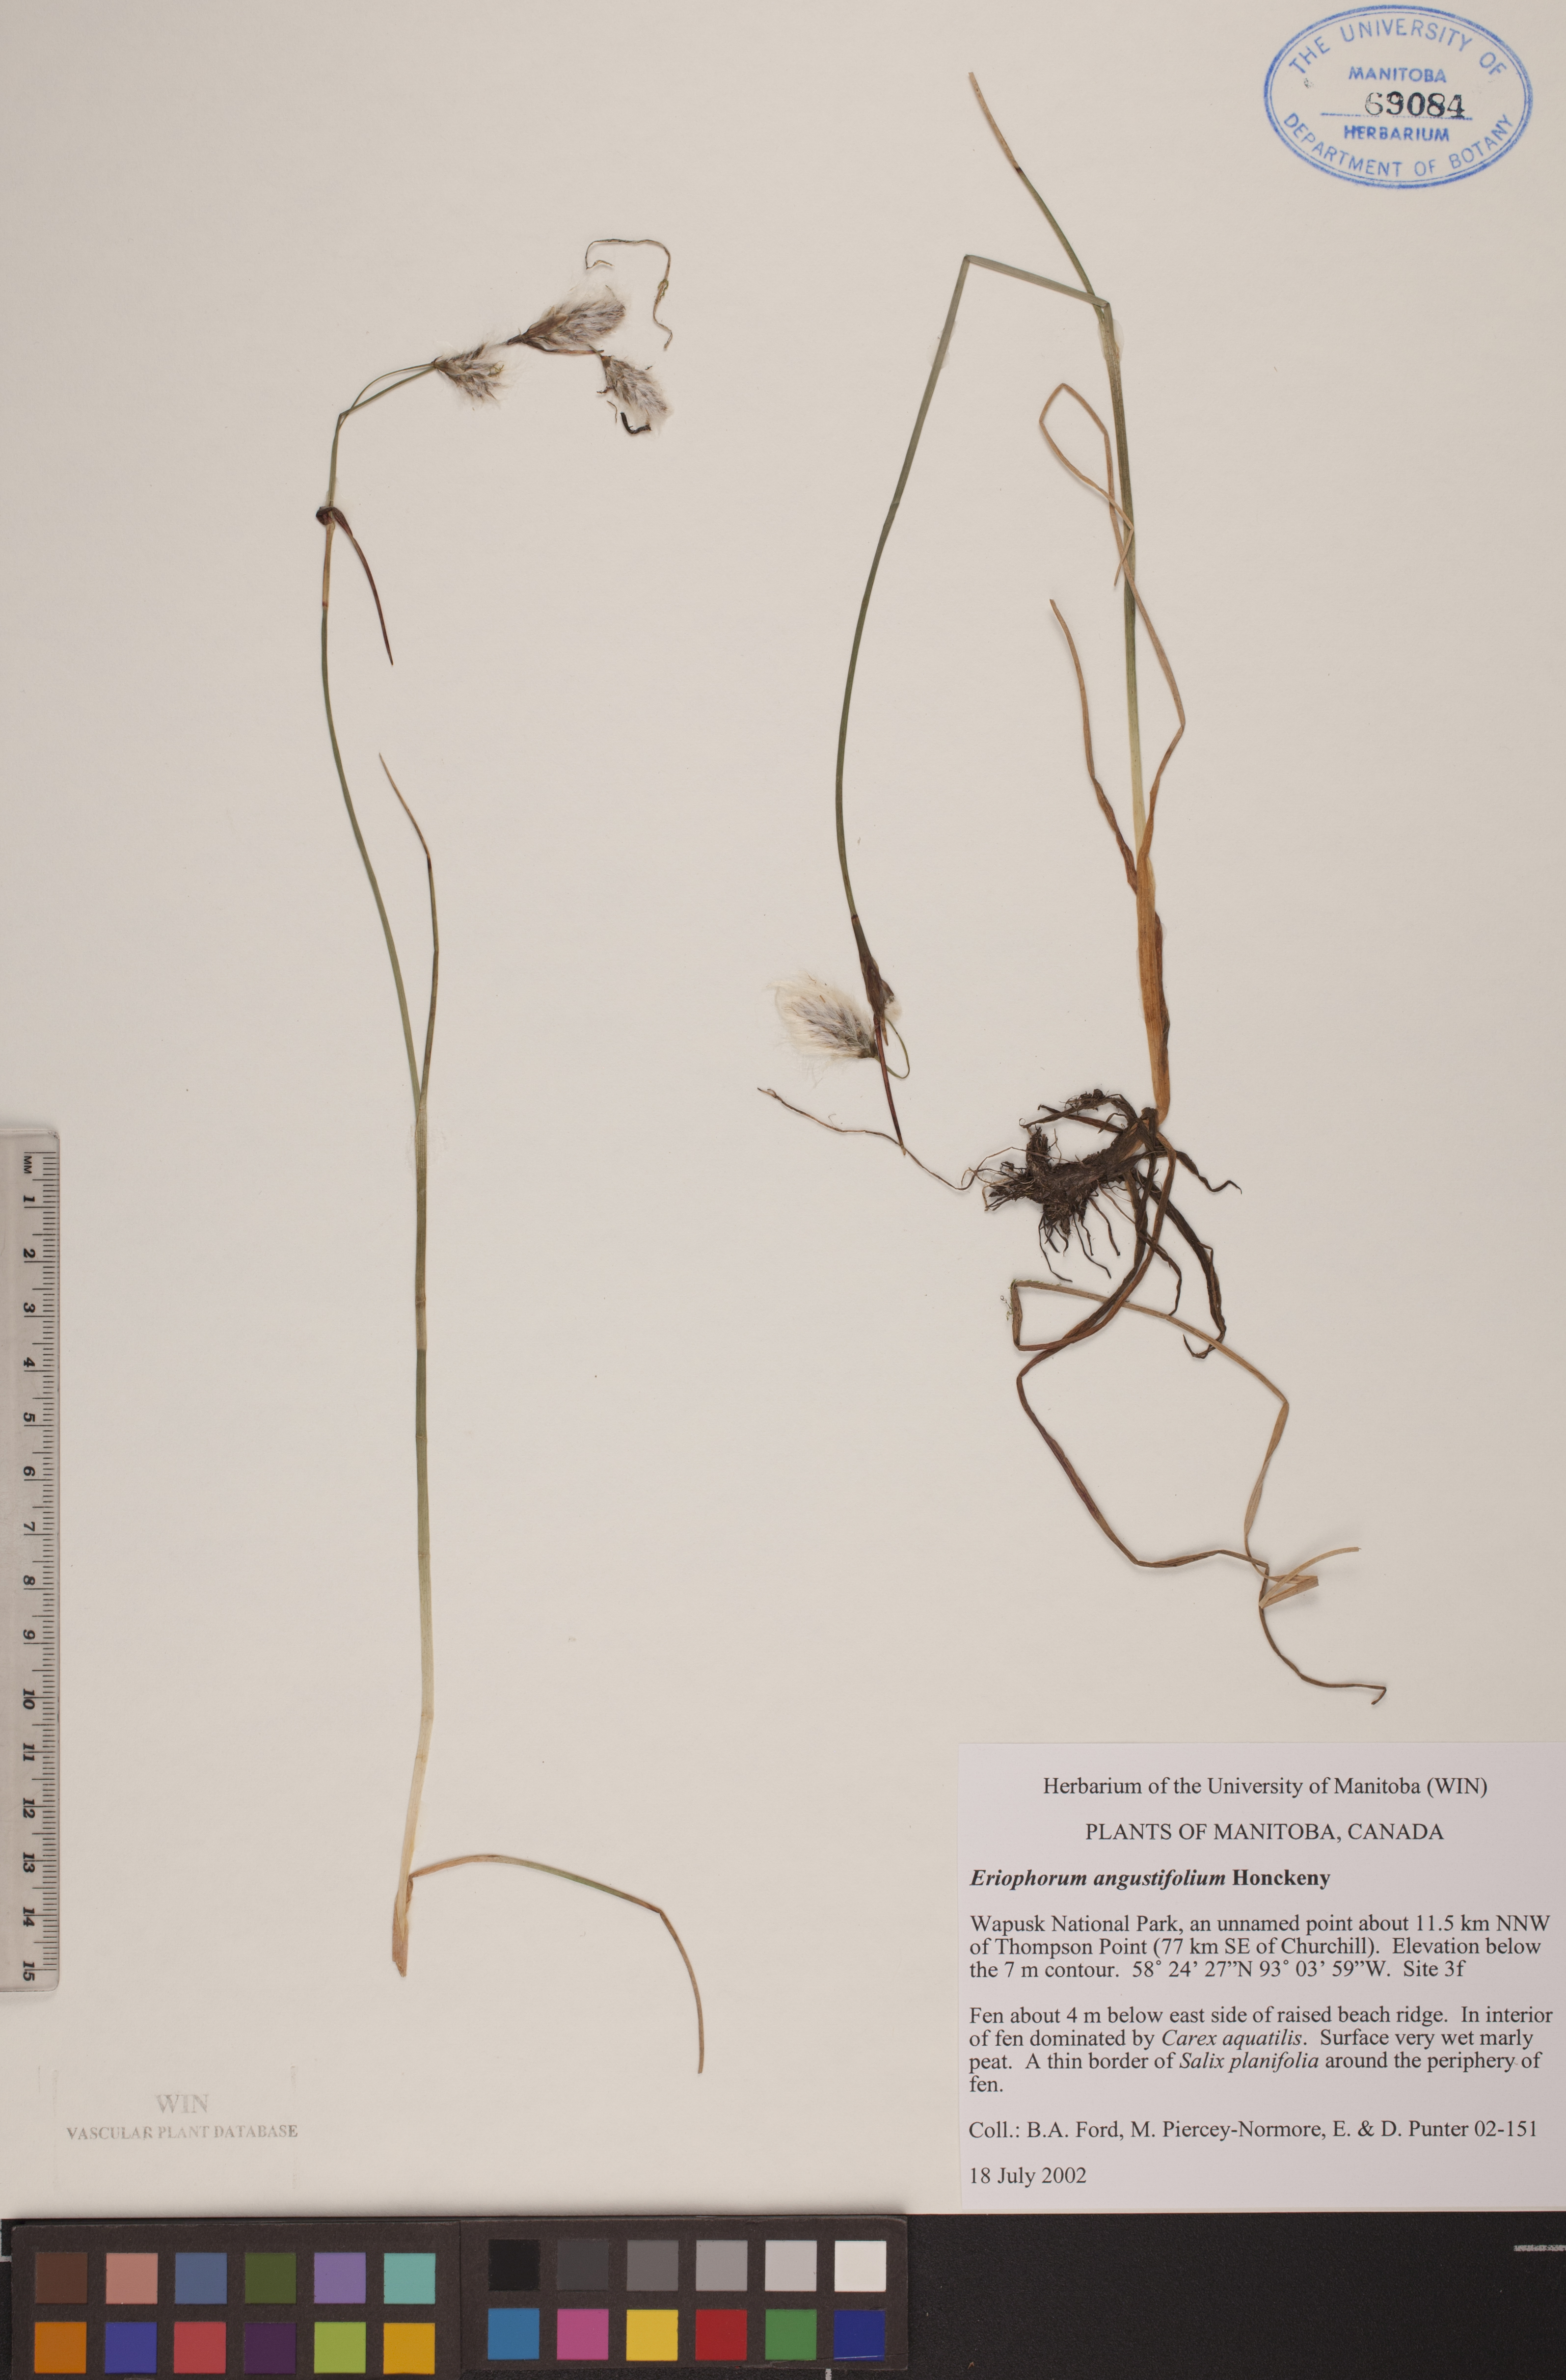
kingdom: Plantae
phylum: Tracheophyta
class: Liliopsida
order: Poales
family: Cyperaceae
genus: Eriophorum
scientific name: Eriophorum angustifolium
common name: Common cottongrass
